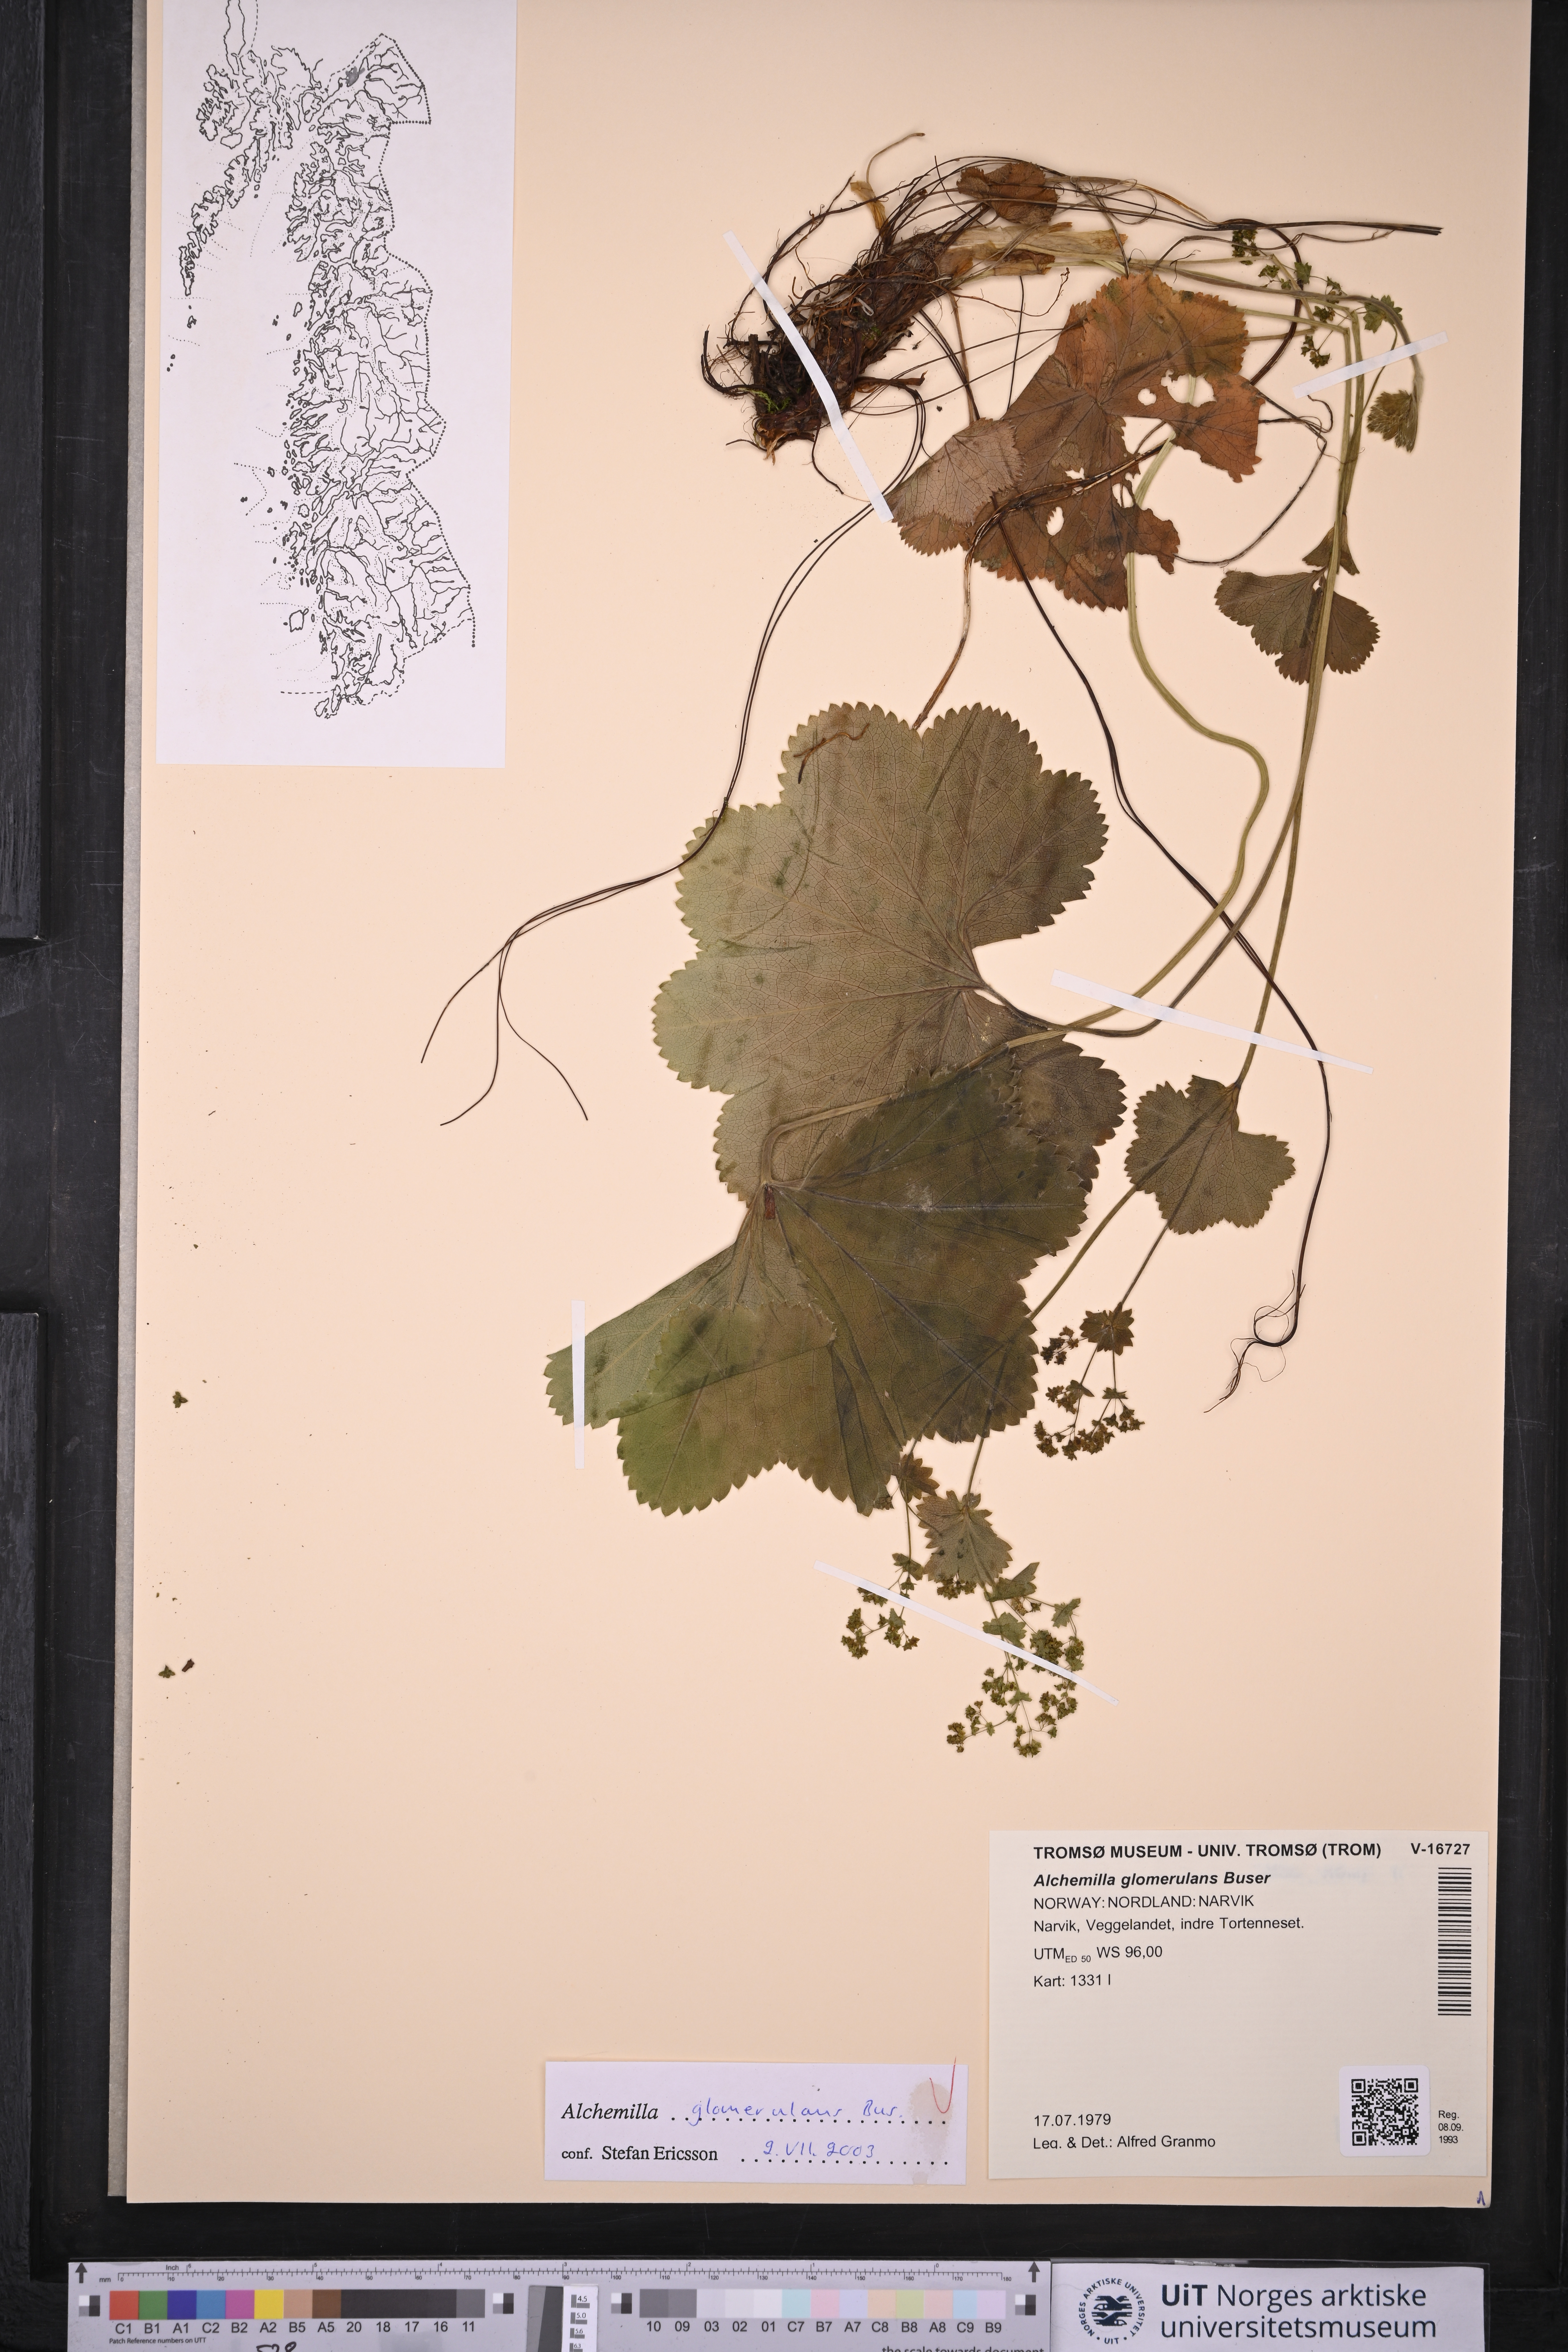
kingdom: Plantae
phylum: Tracheophyta
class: Magnoliopsida
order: Rosales
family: Rosaceae
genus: Alchemilla
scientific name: Alchemilla glomerulans
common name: Clustered lady's mantle
